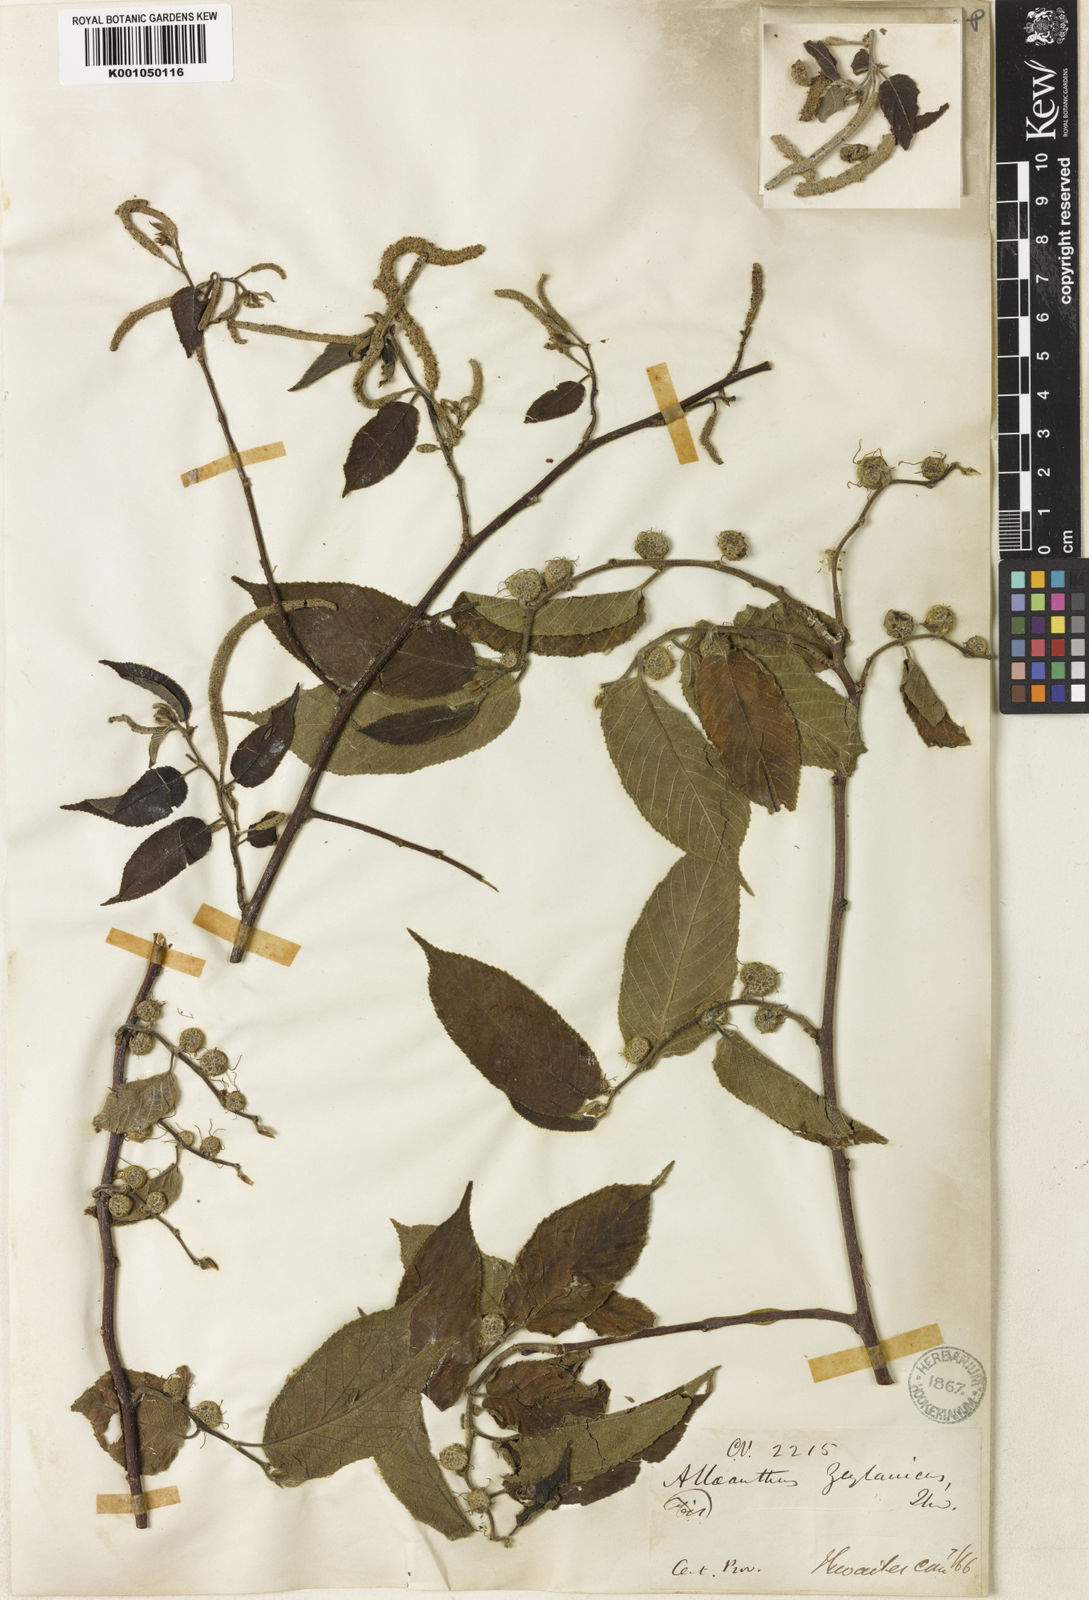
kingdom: Plantae
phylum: Tracheophyta
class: Magnoliopsida
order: Rosales
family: Moraceae
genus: Allaeanthus
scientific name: Allaeanthus zeylanicus
